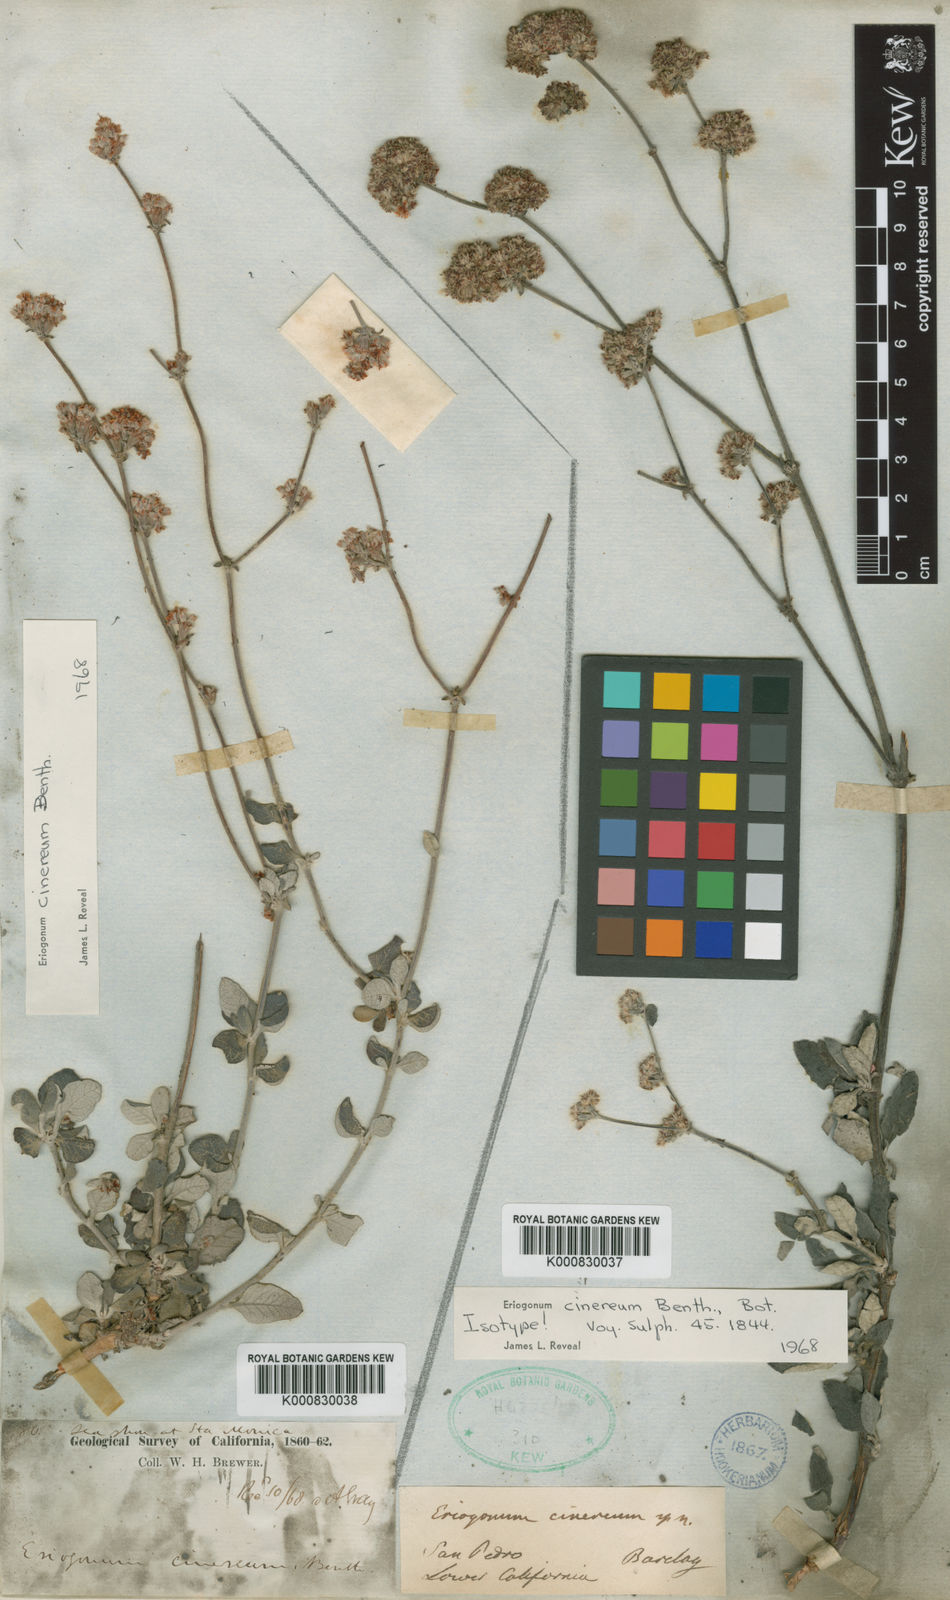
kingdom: Plantae
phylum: Tracheophyta
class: Magnoliopsida
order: Caryophyllales
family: Polygonaceae
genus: Eriogonum
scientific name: Eriogonum cinereum
